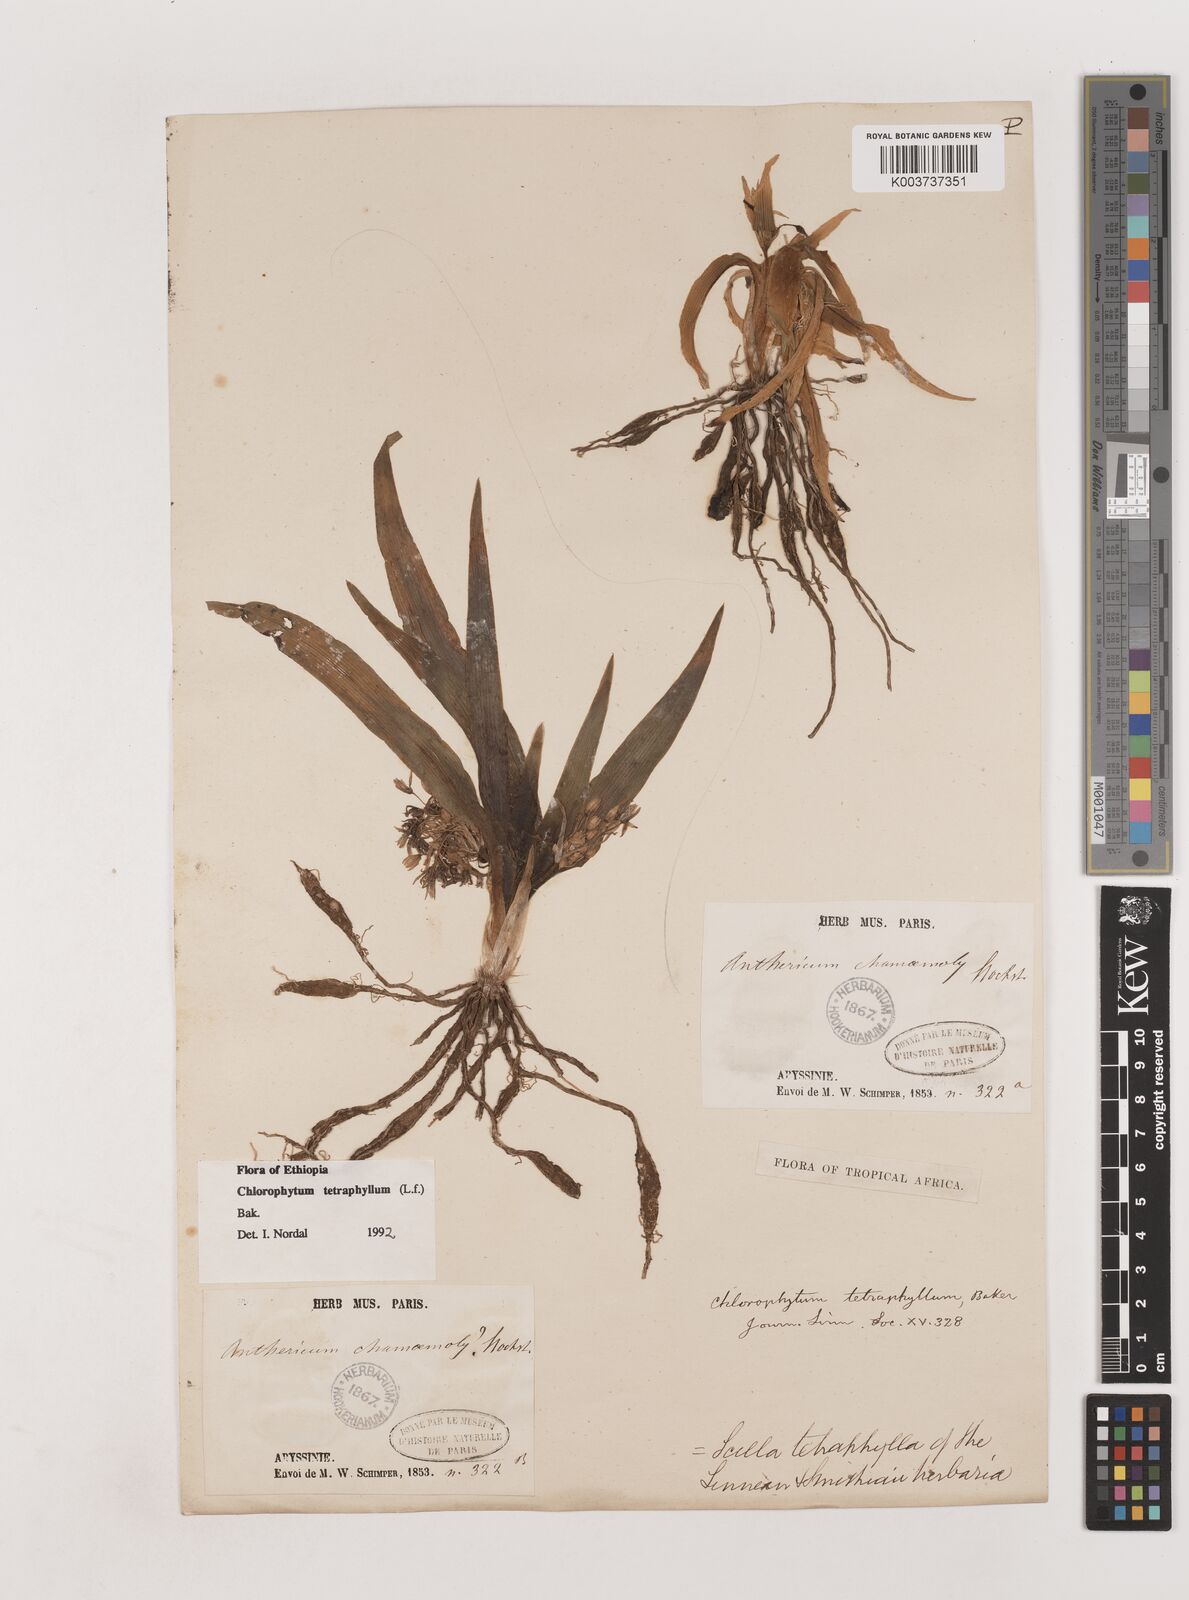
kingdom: Plantae
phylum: Tracheophyta
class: Liliopsida
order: Asparagales
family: Asparagaceae
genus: Chlorophytum
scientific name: Chlorophytum tetraphyllum
